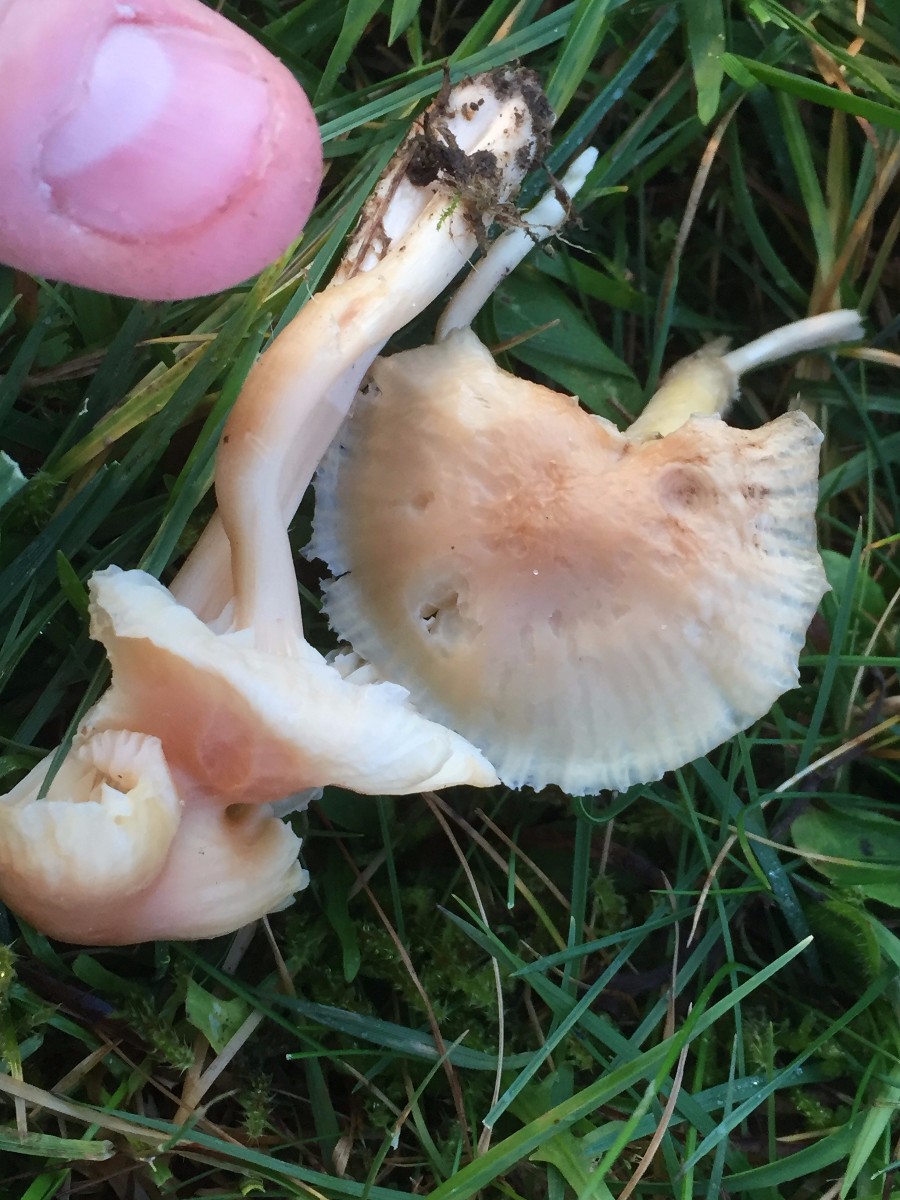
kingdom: Fungi
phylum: Basidiomycota
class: Agaricomycetes
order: Agaricales
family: Hygrophoraceae
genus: Cuphophyllus
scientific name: Cuphophyllus
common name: vokshat
